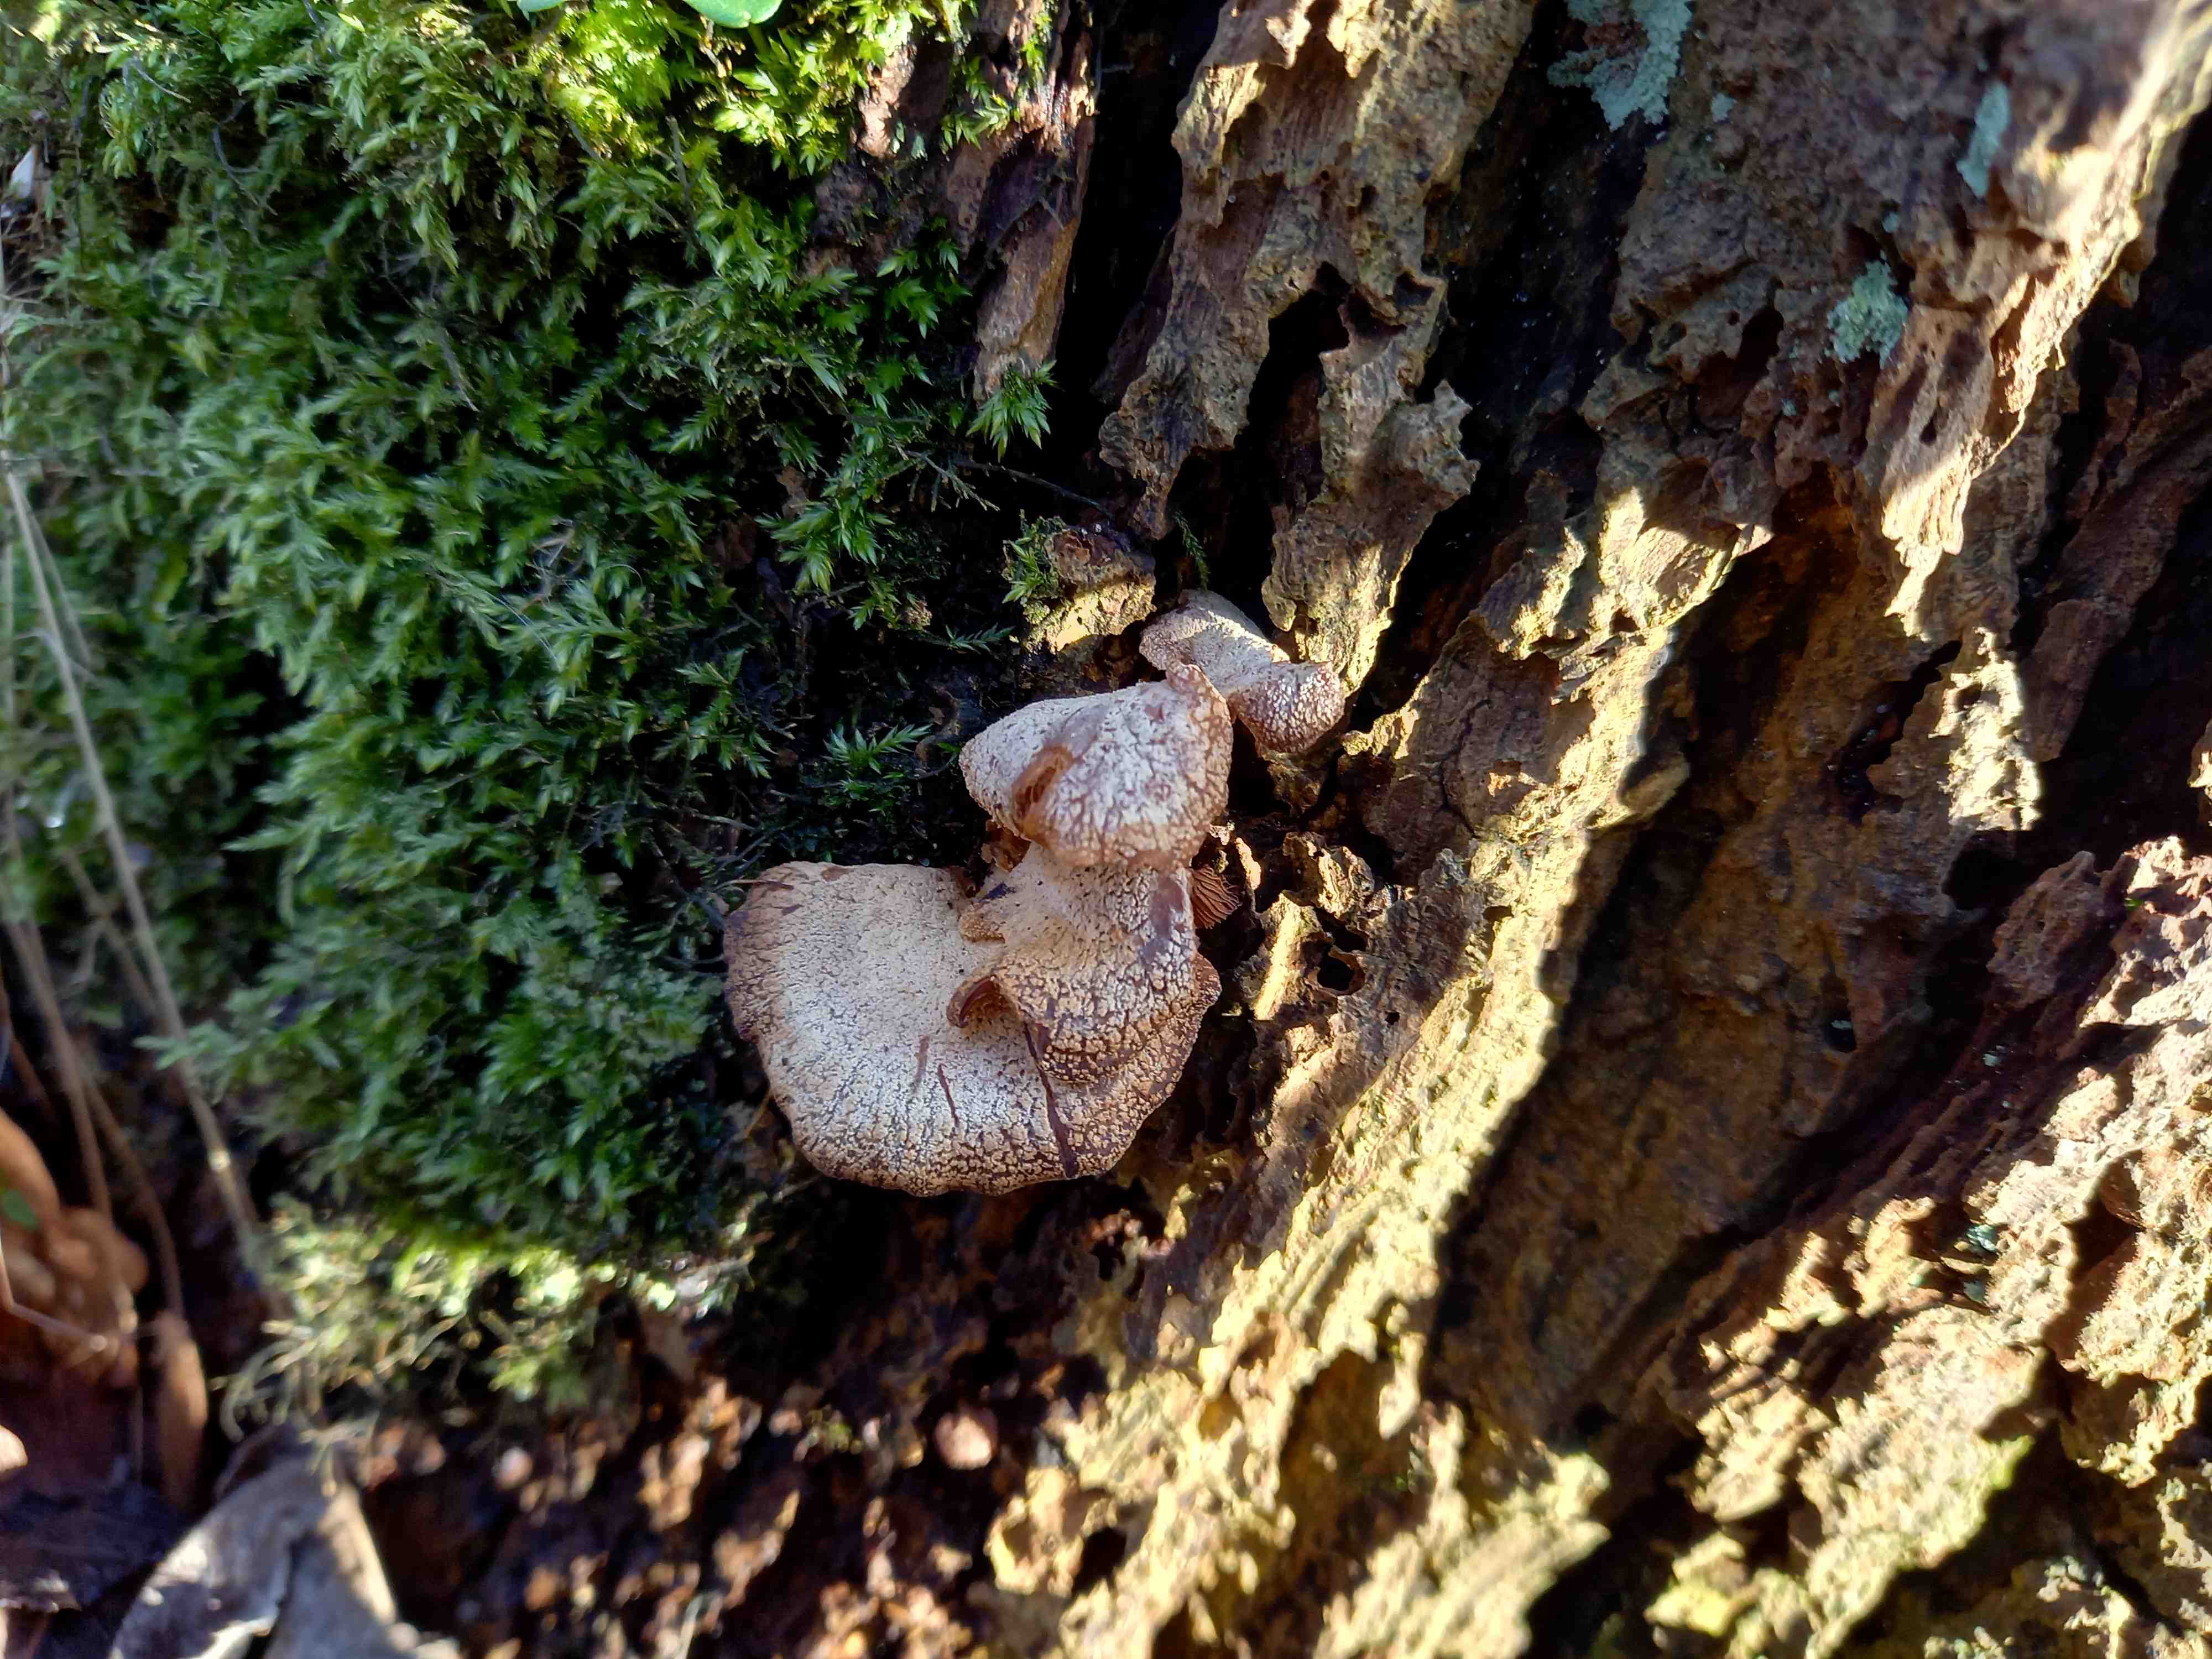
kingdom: Fungi
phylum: Basidiomycota
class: Agaricomycetes
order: Agaricales
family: Mycenaceae
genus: Panellus
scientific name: Panellus stipticus
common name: kliddet epaulethat
